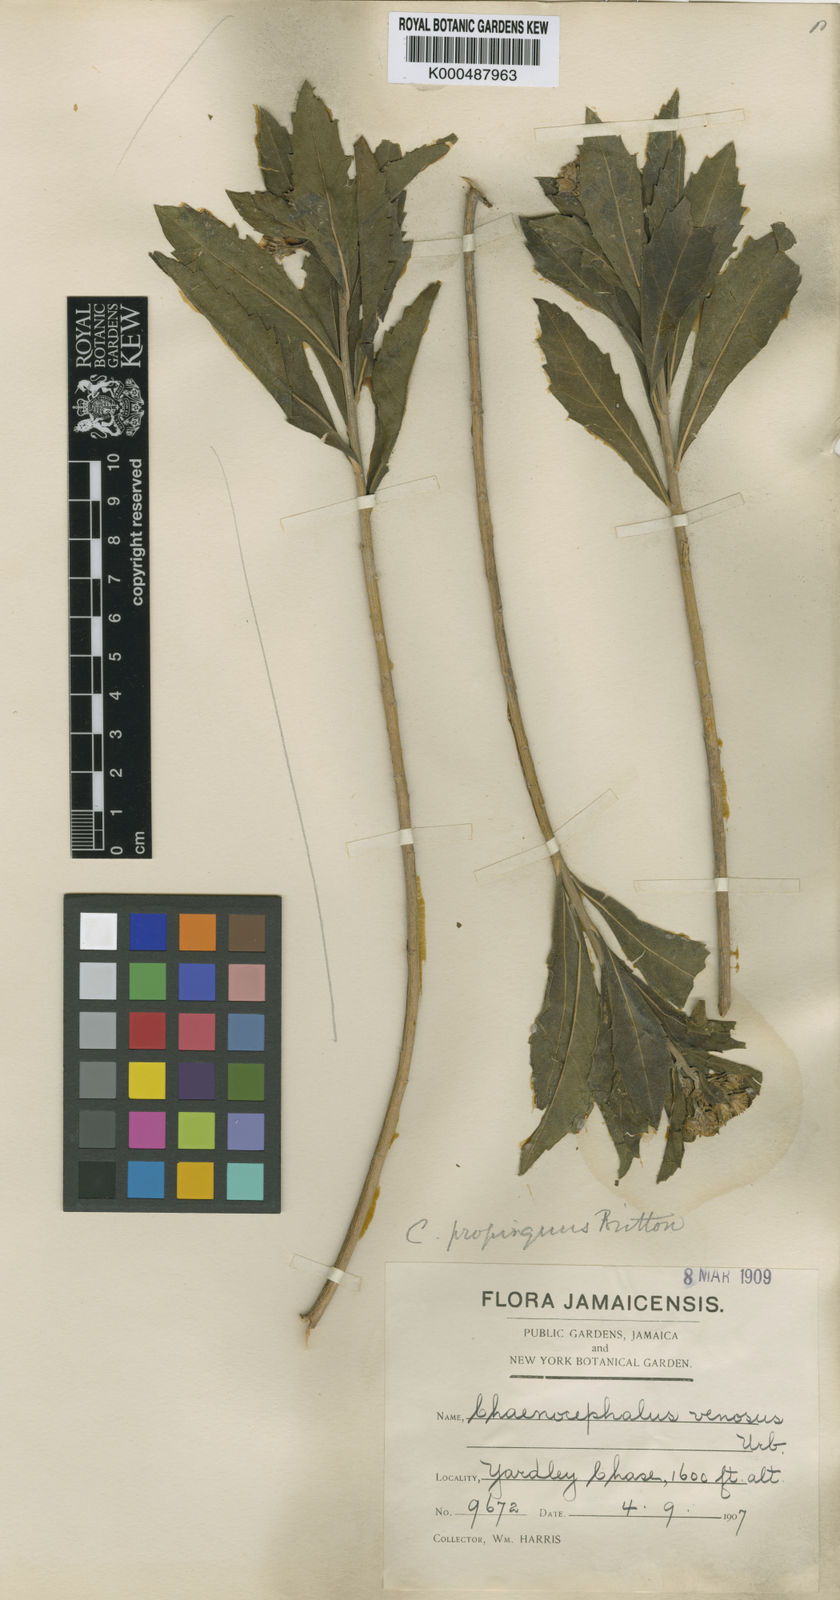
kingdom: Plantae
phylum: Tracheophyta
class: Magnoliopsida
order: Asterales
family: Asteraceae
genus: Verbesina
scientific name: Verbesina propinqua
